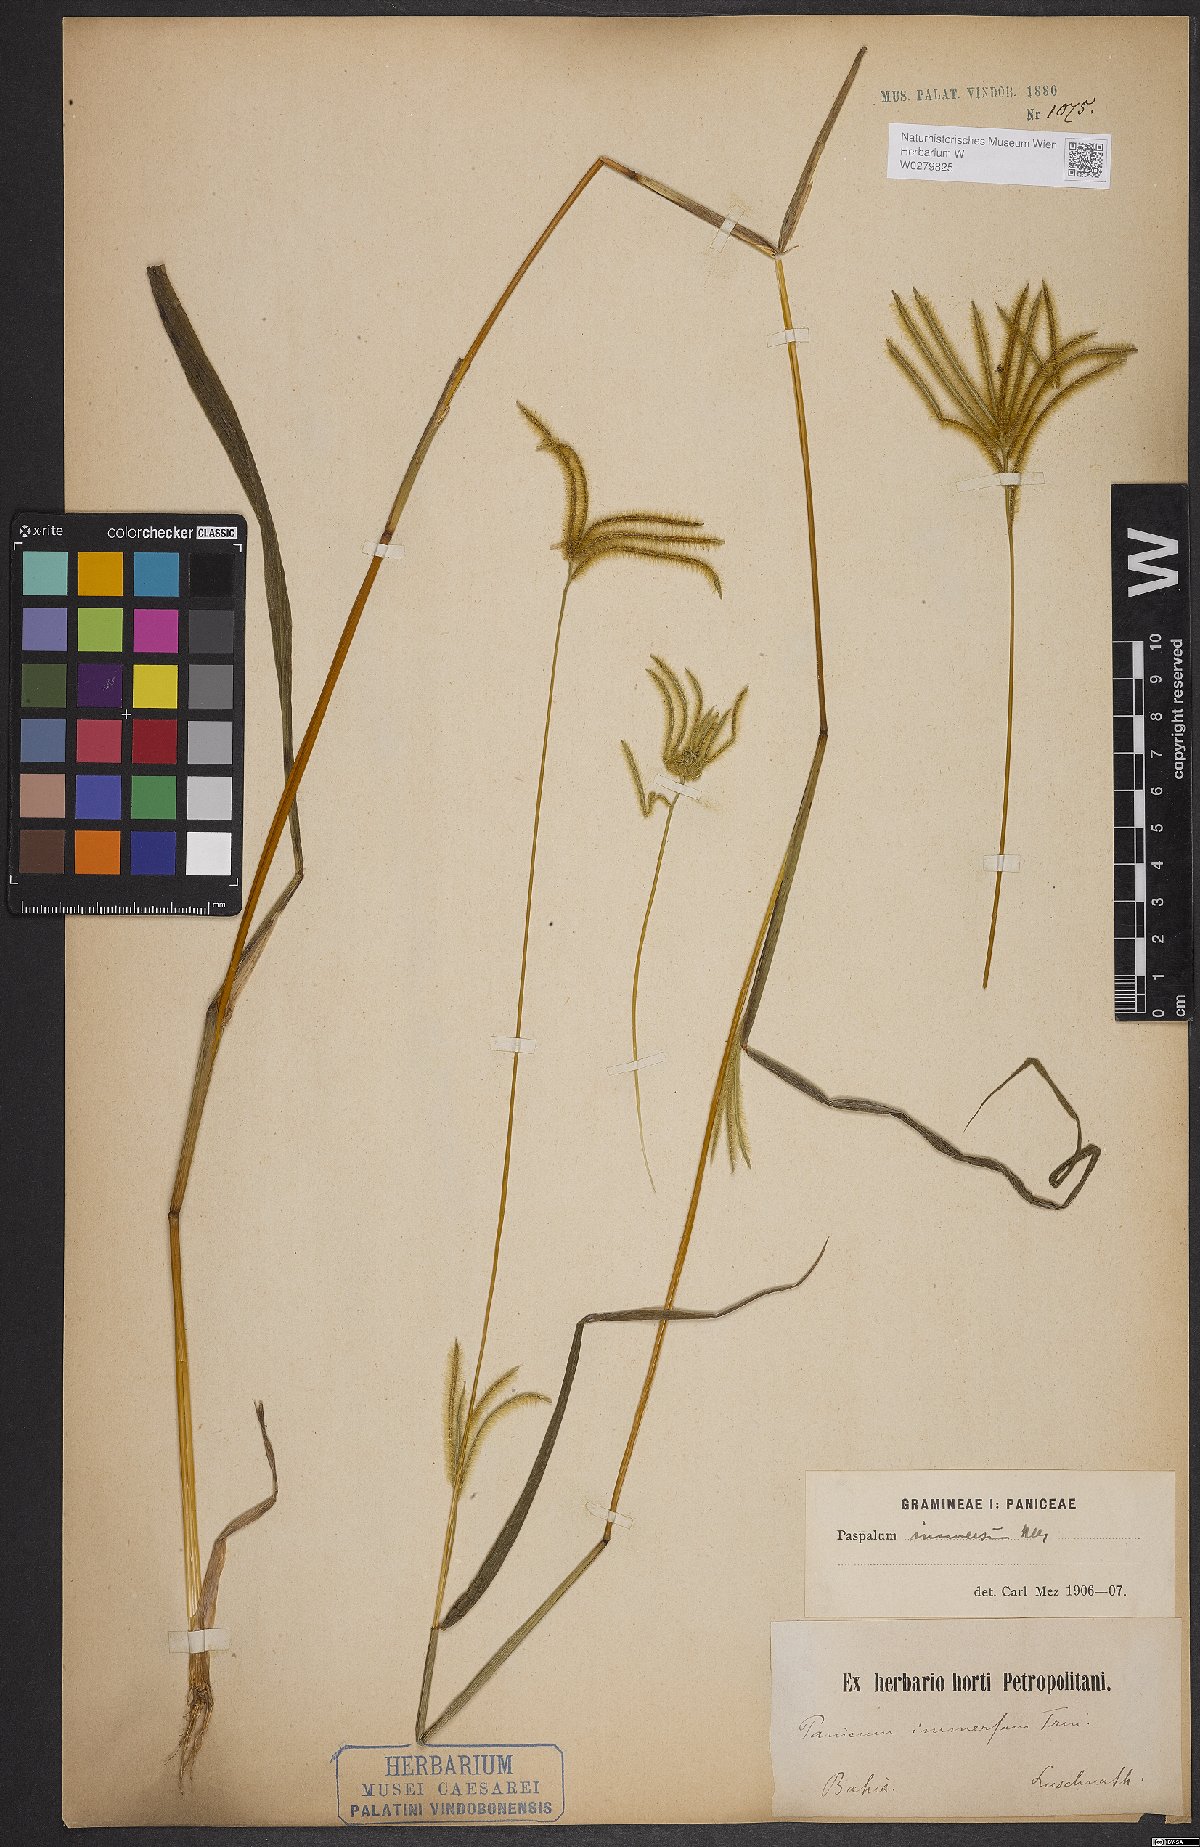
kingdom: Plantae
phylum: Tracheophyta
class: Liliopsida
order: Poales
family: Poaceae
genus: Axonopus
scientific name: Axonopus aureus
